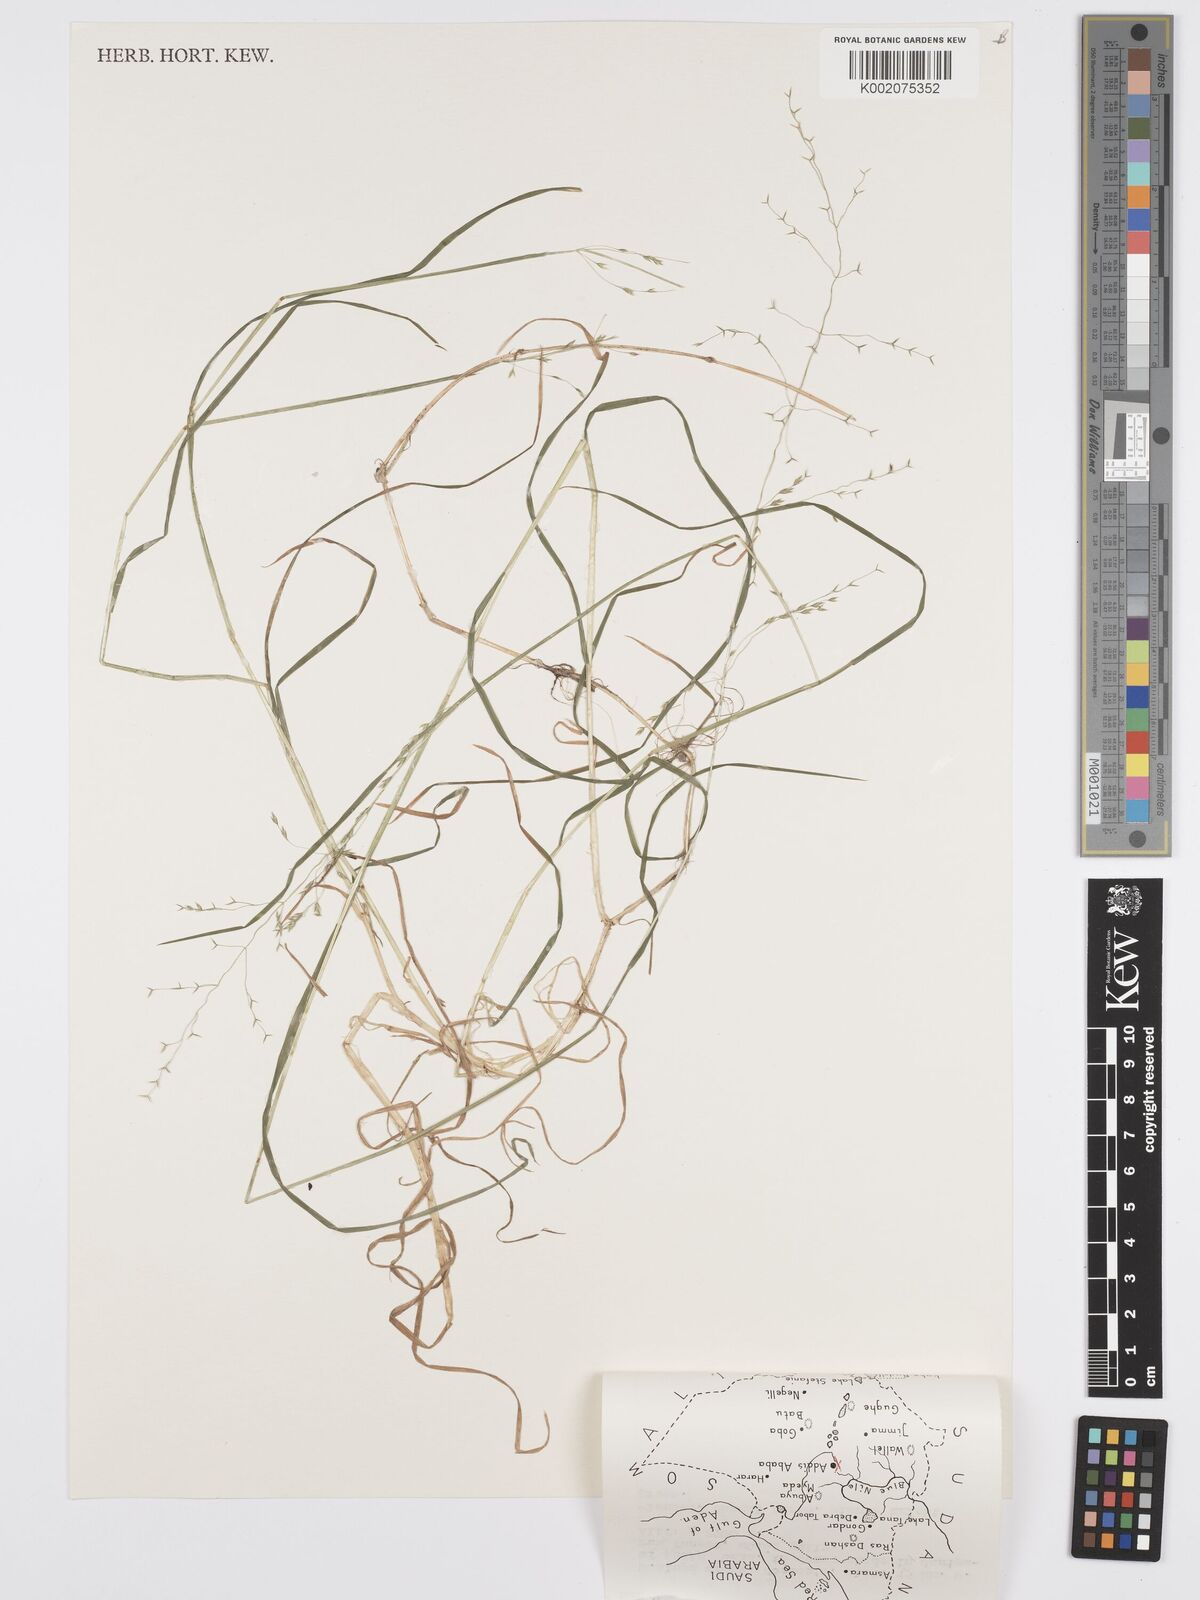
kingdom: Plantae
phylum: Tracheophyta
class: Liliopsida
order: Poales
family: Poaceae
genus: Poa
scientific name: Poa schimperiana
